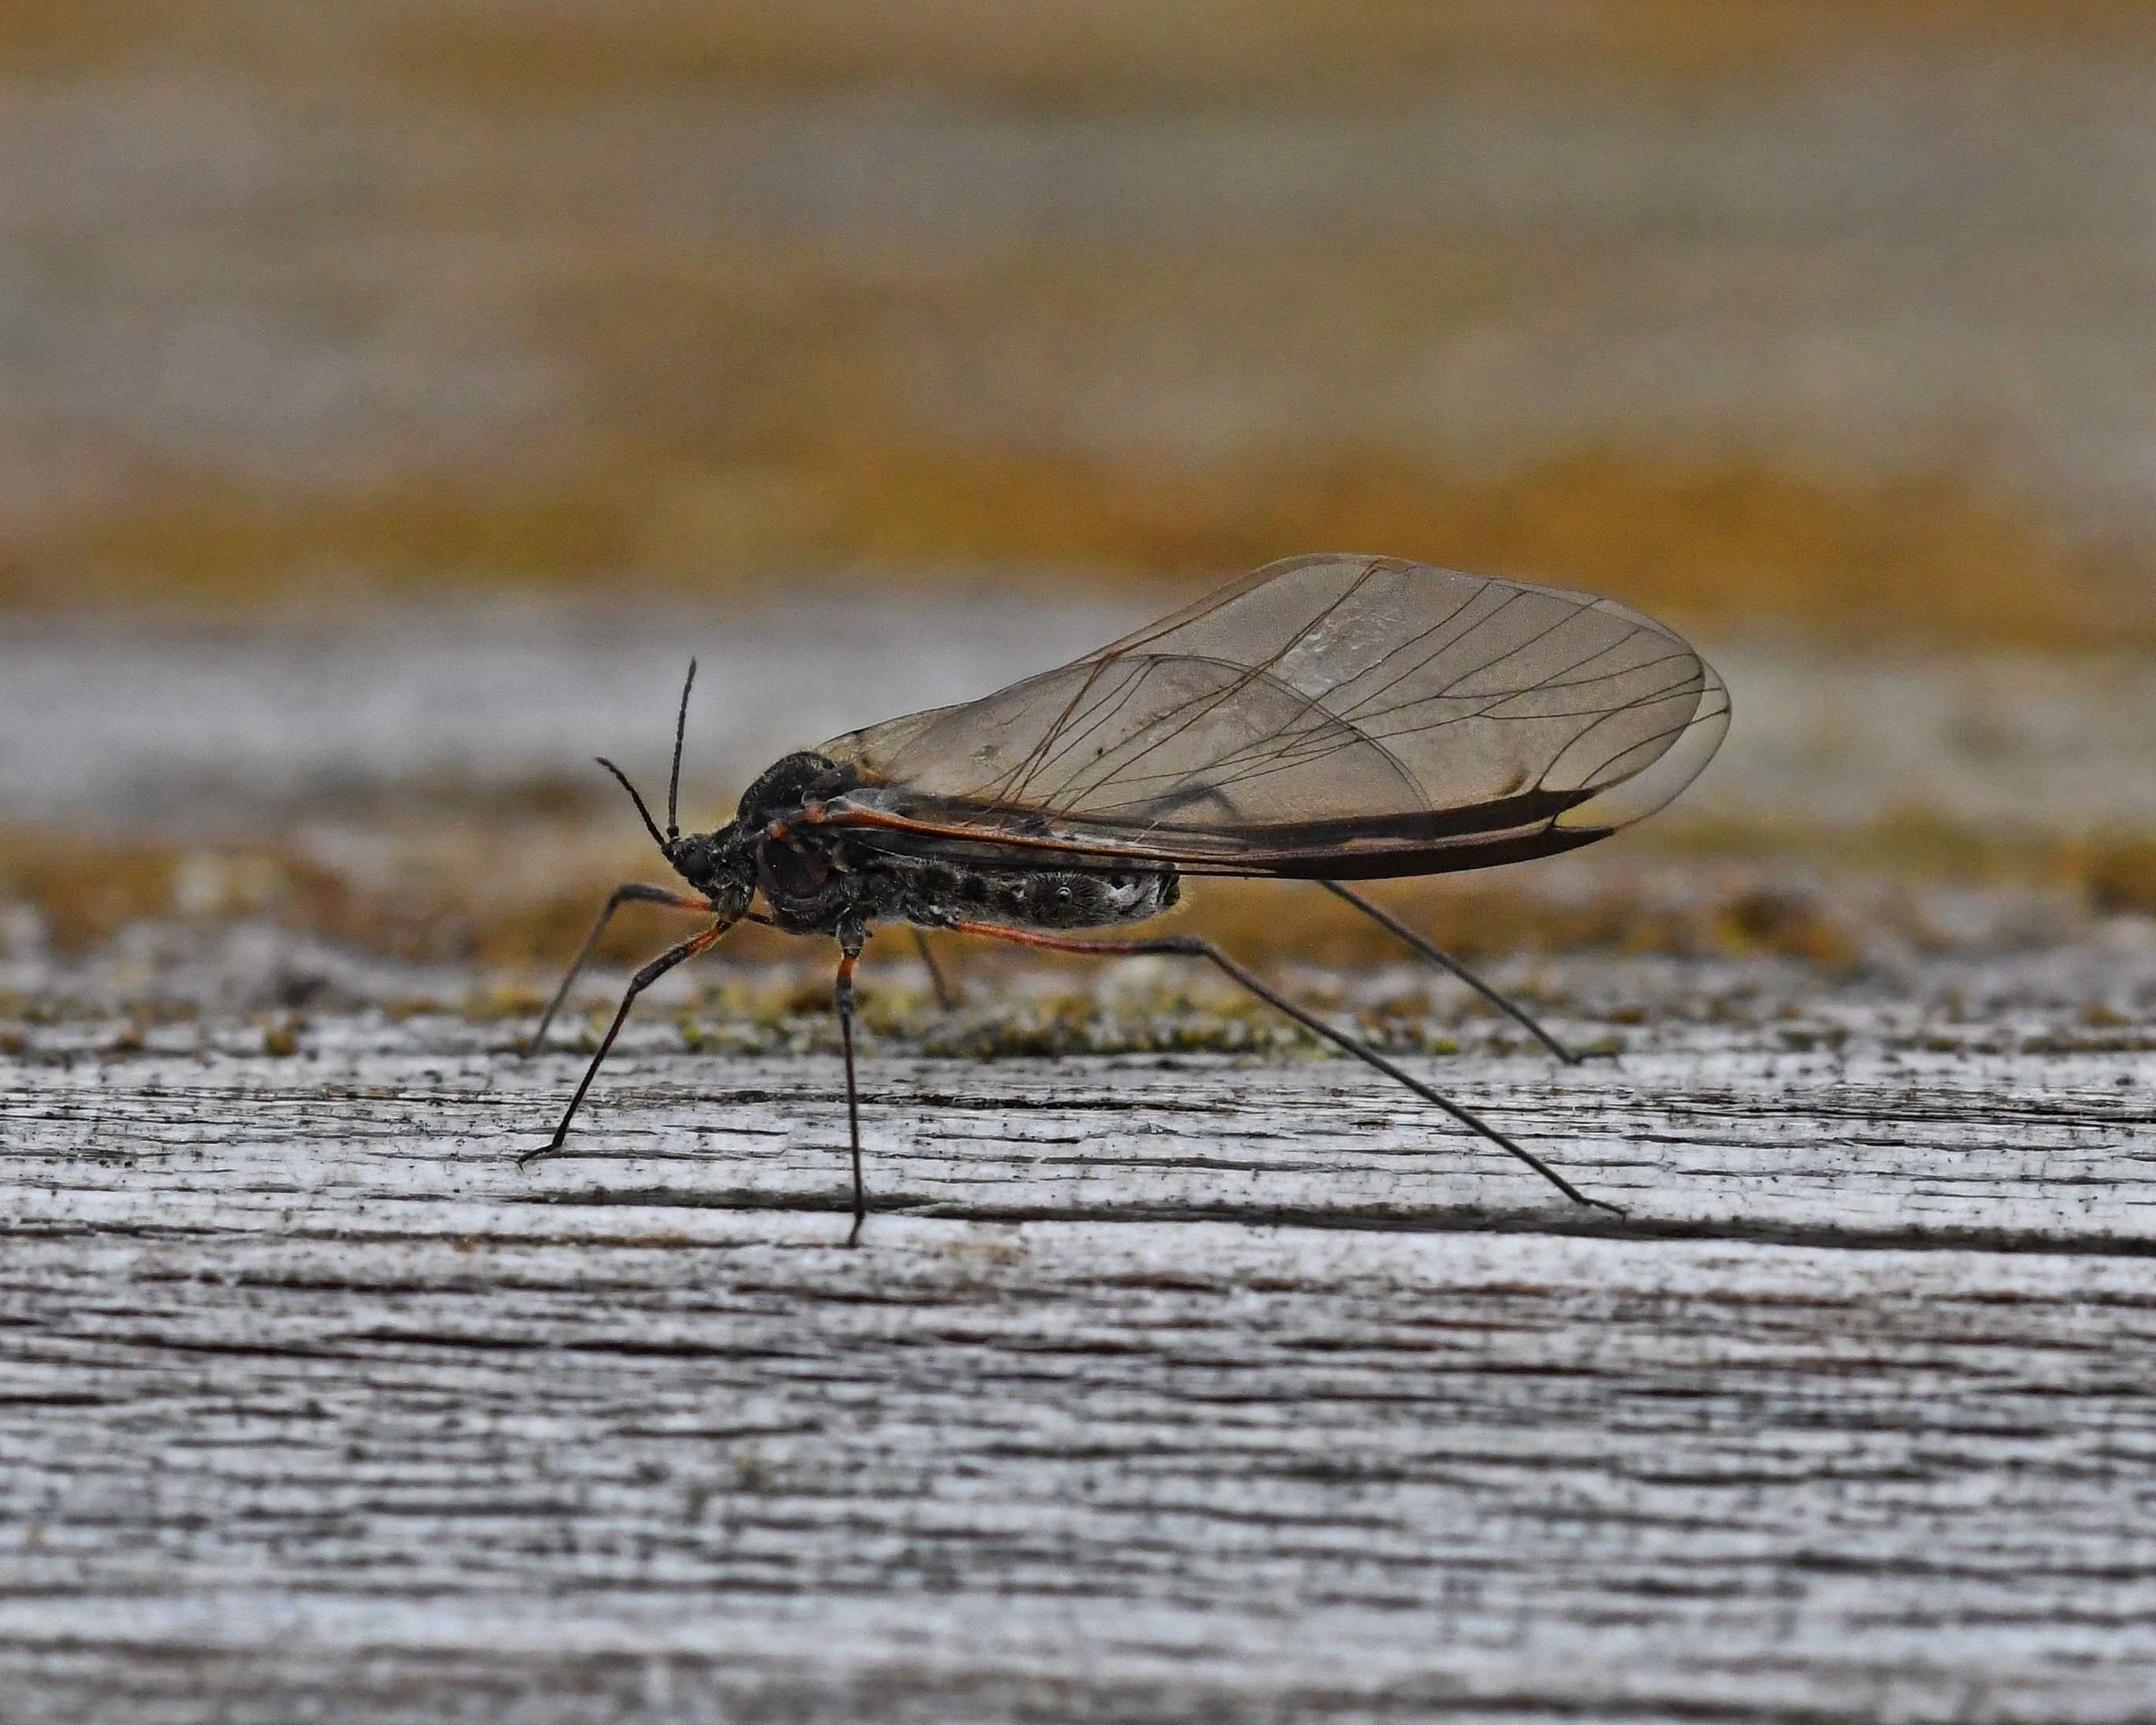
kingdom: Animalia
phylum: Arthropoda
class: Insecta
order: Hemiptera
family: Aphididae
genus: Tuberolachnus
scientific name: Tuberolachnus salignus
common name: Giant willow aphid
